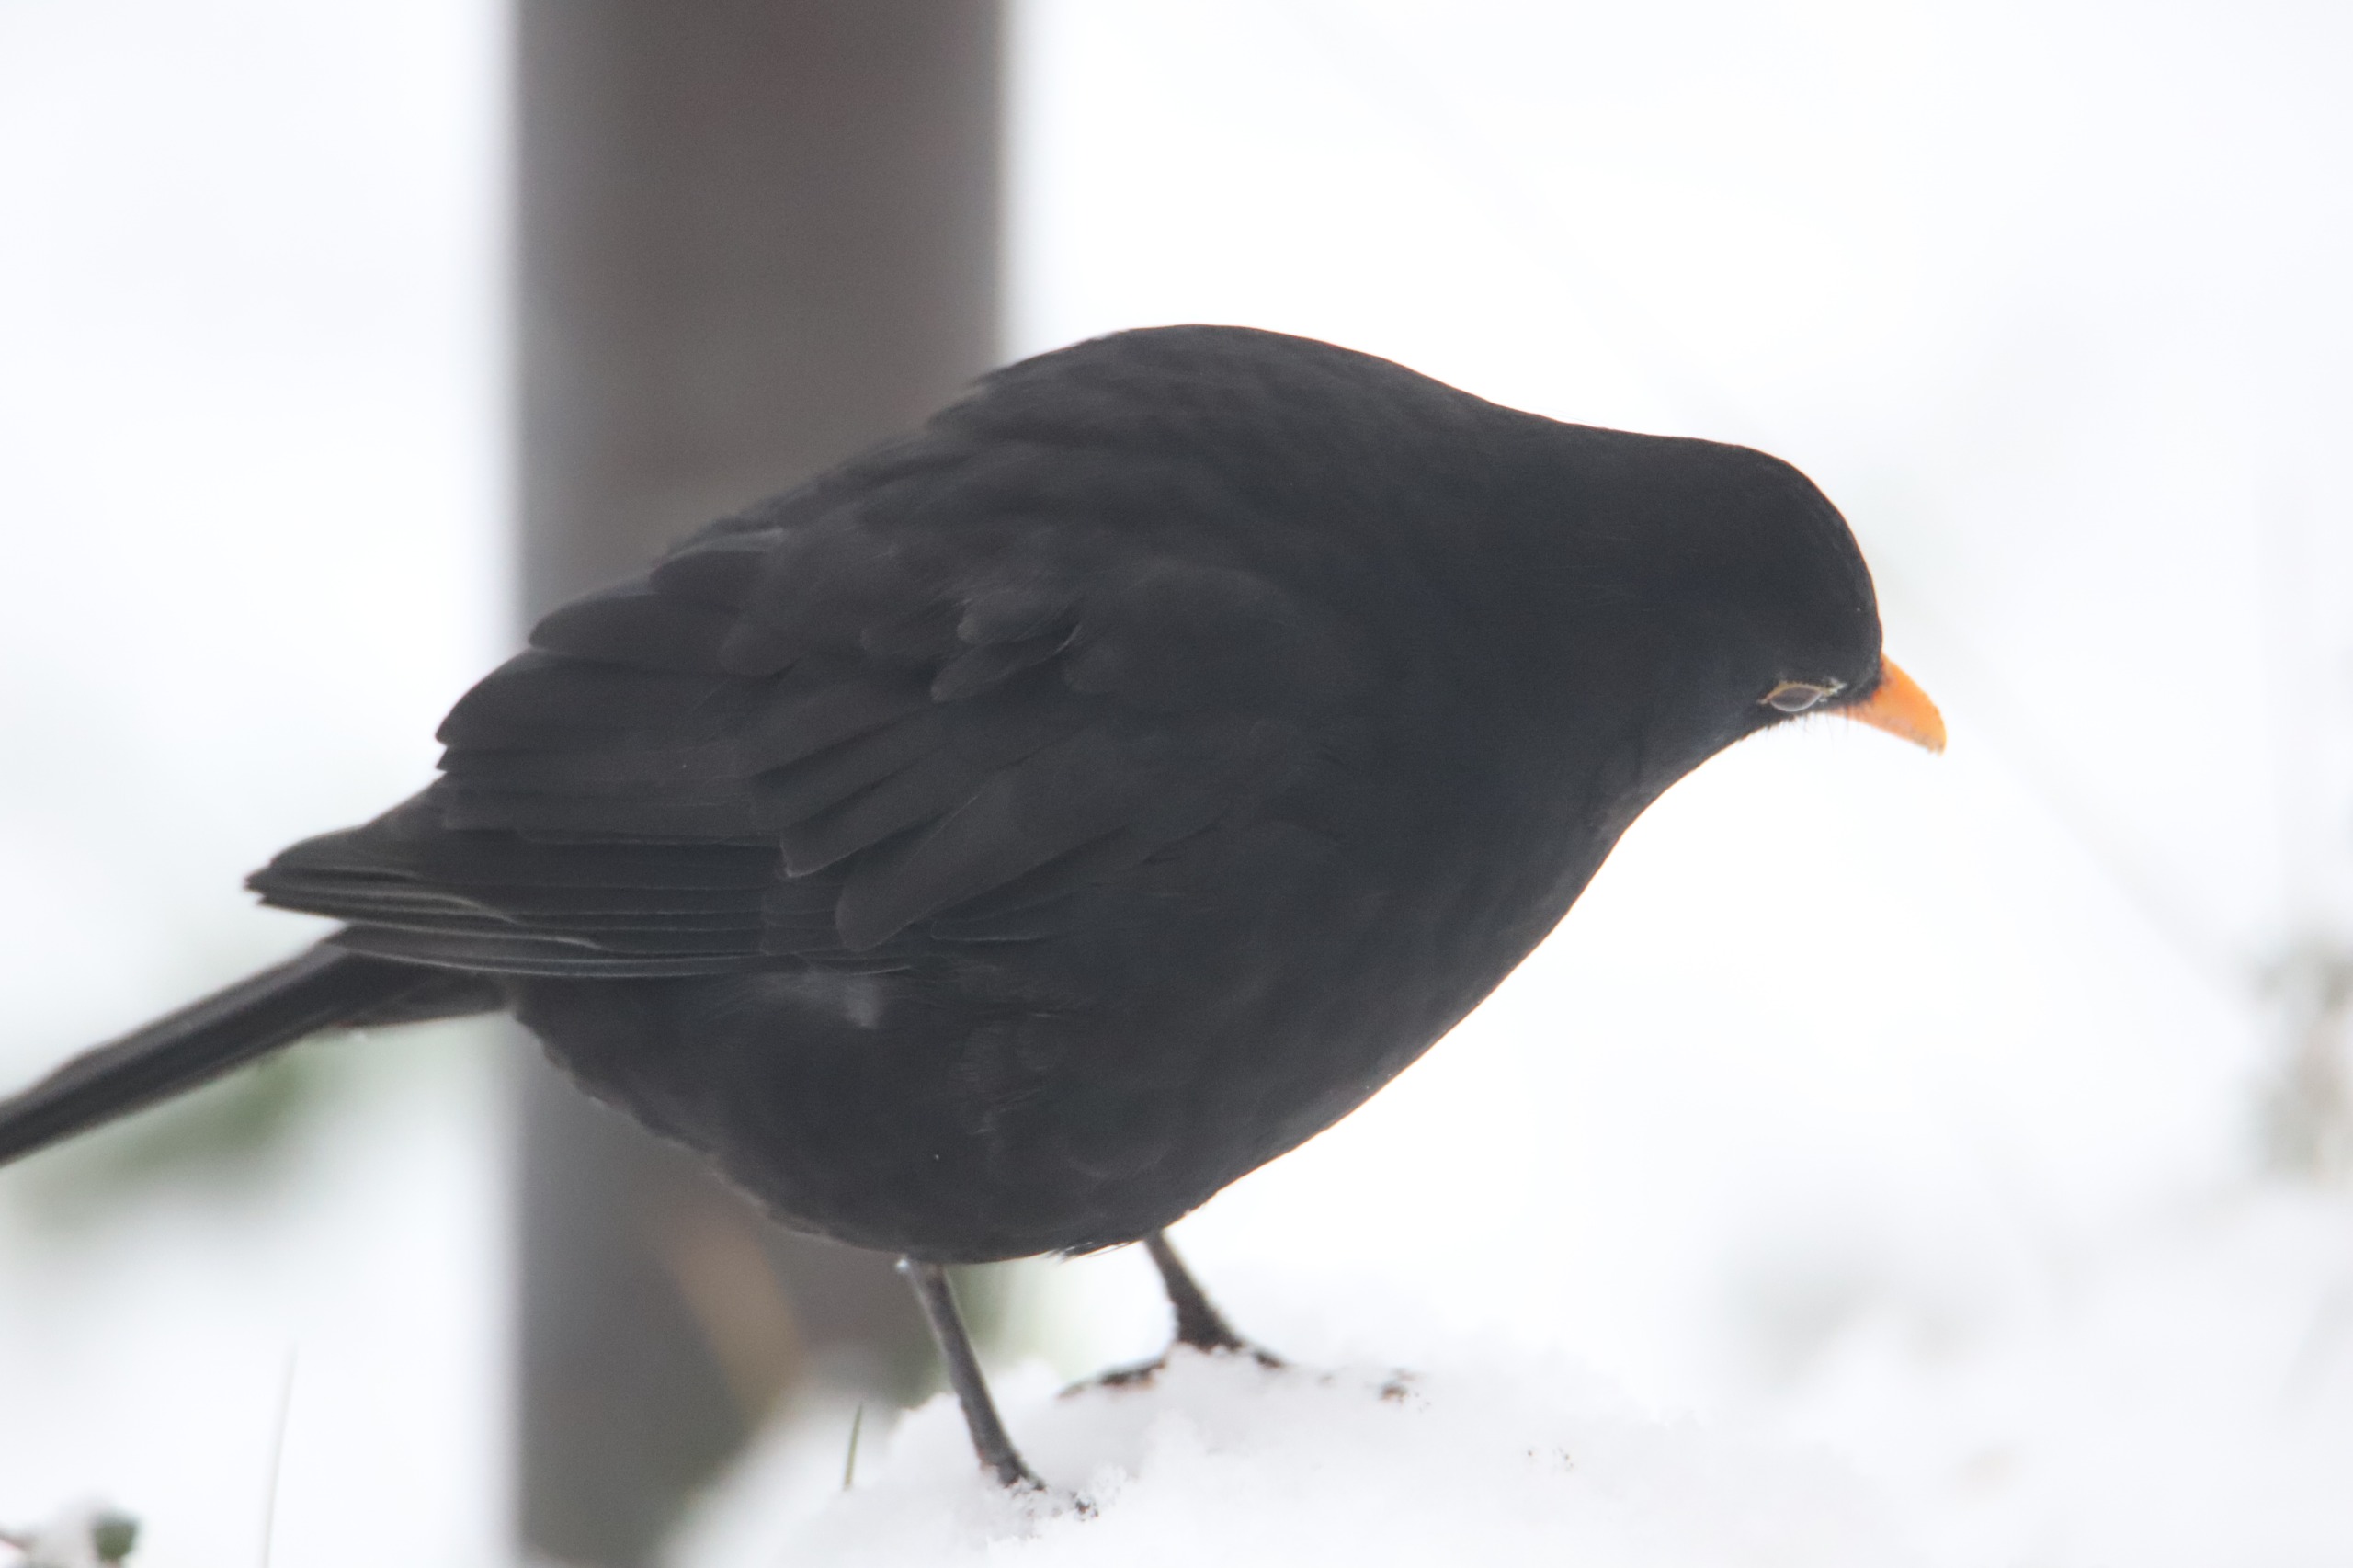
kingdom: Animalia
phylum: Chordata
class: Aves
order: Passeriformes
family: Turdidae
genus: Turdus
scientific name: Turdus merula
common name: Solsort
